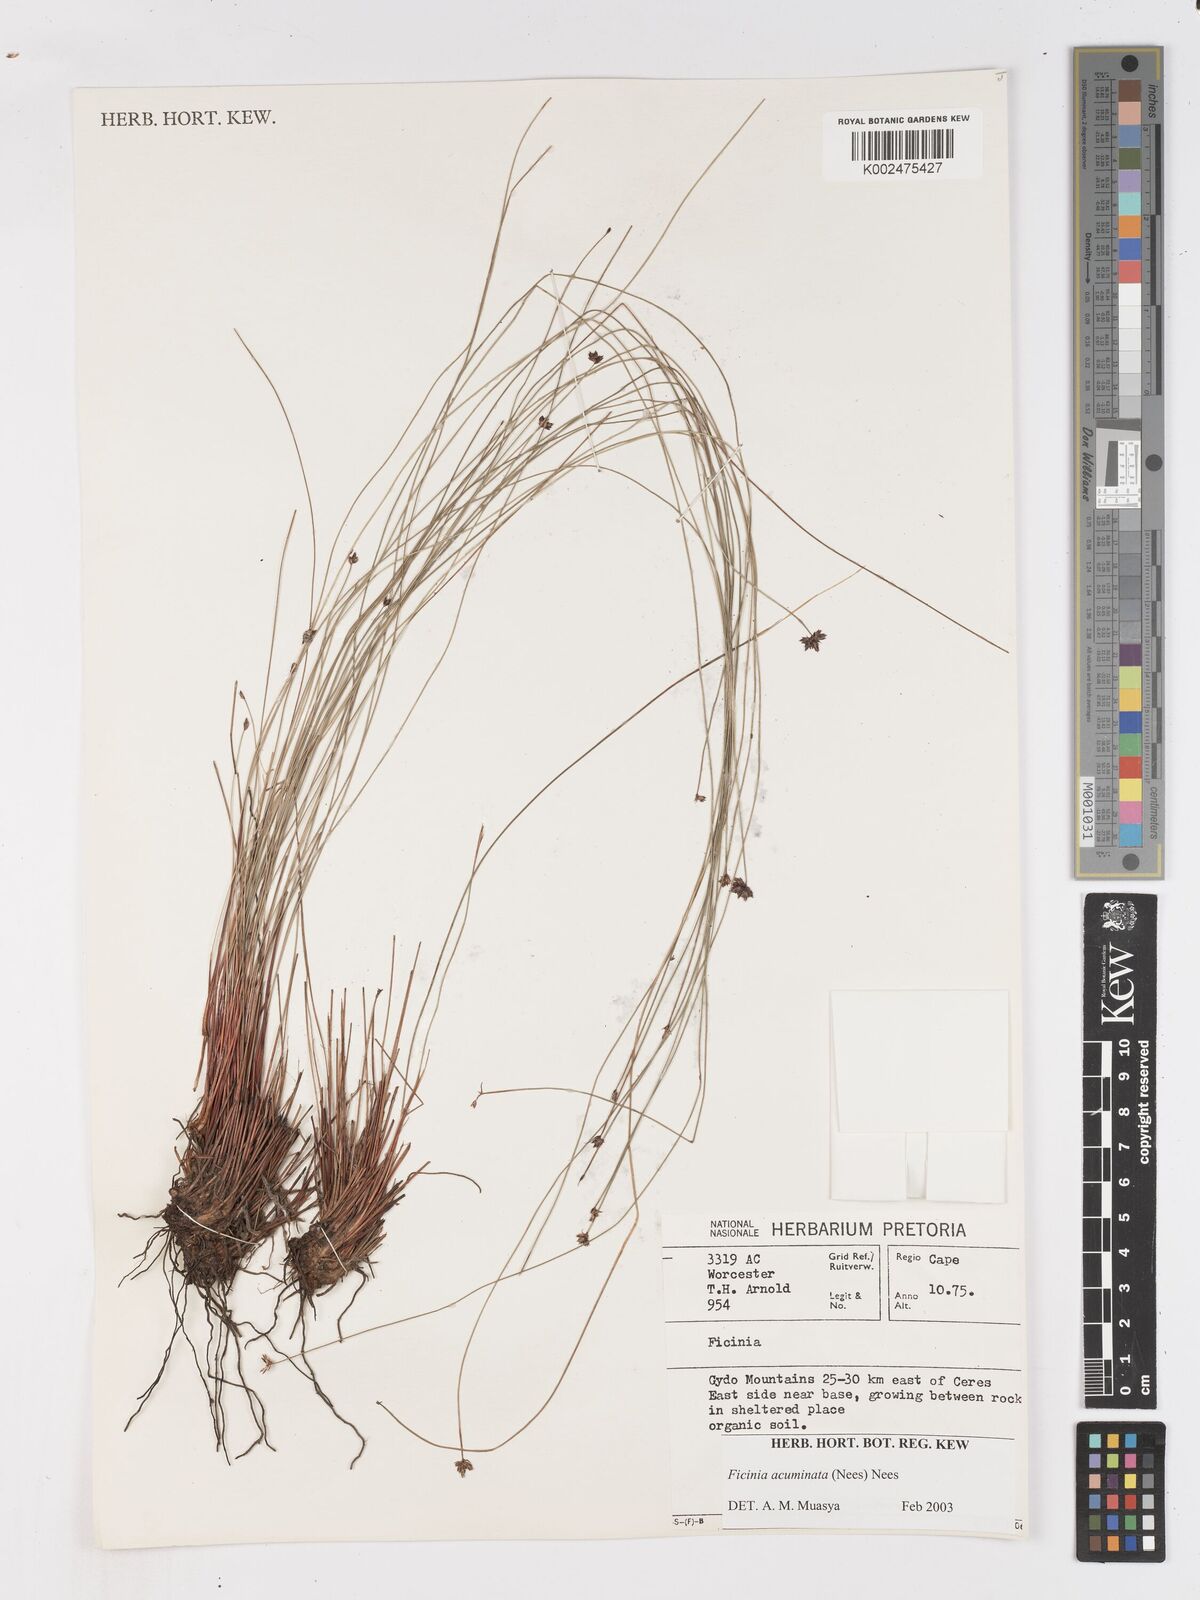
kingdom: Plantae
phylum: Tracheophyta
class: Liliopsida
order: Poales
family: Cyperaceae
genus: Ficinia
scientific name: Ficinia acuminata
